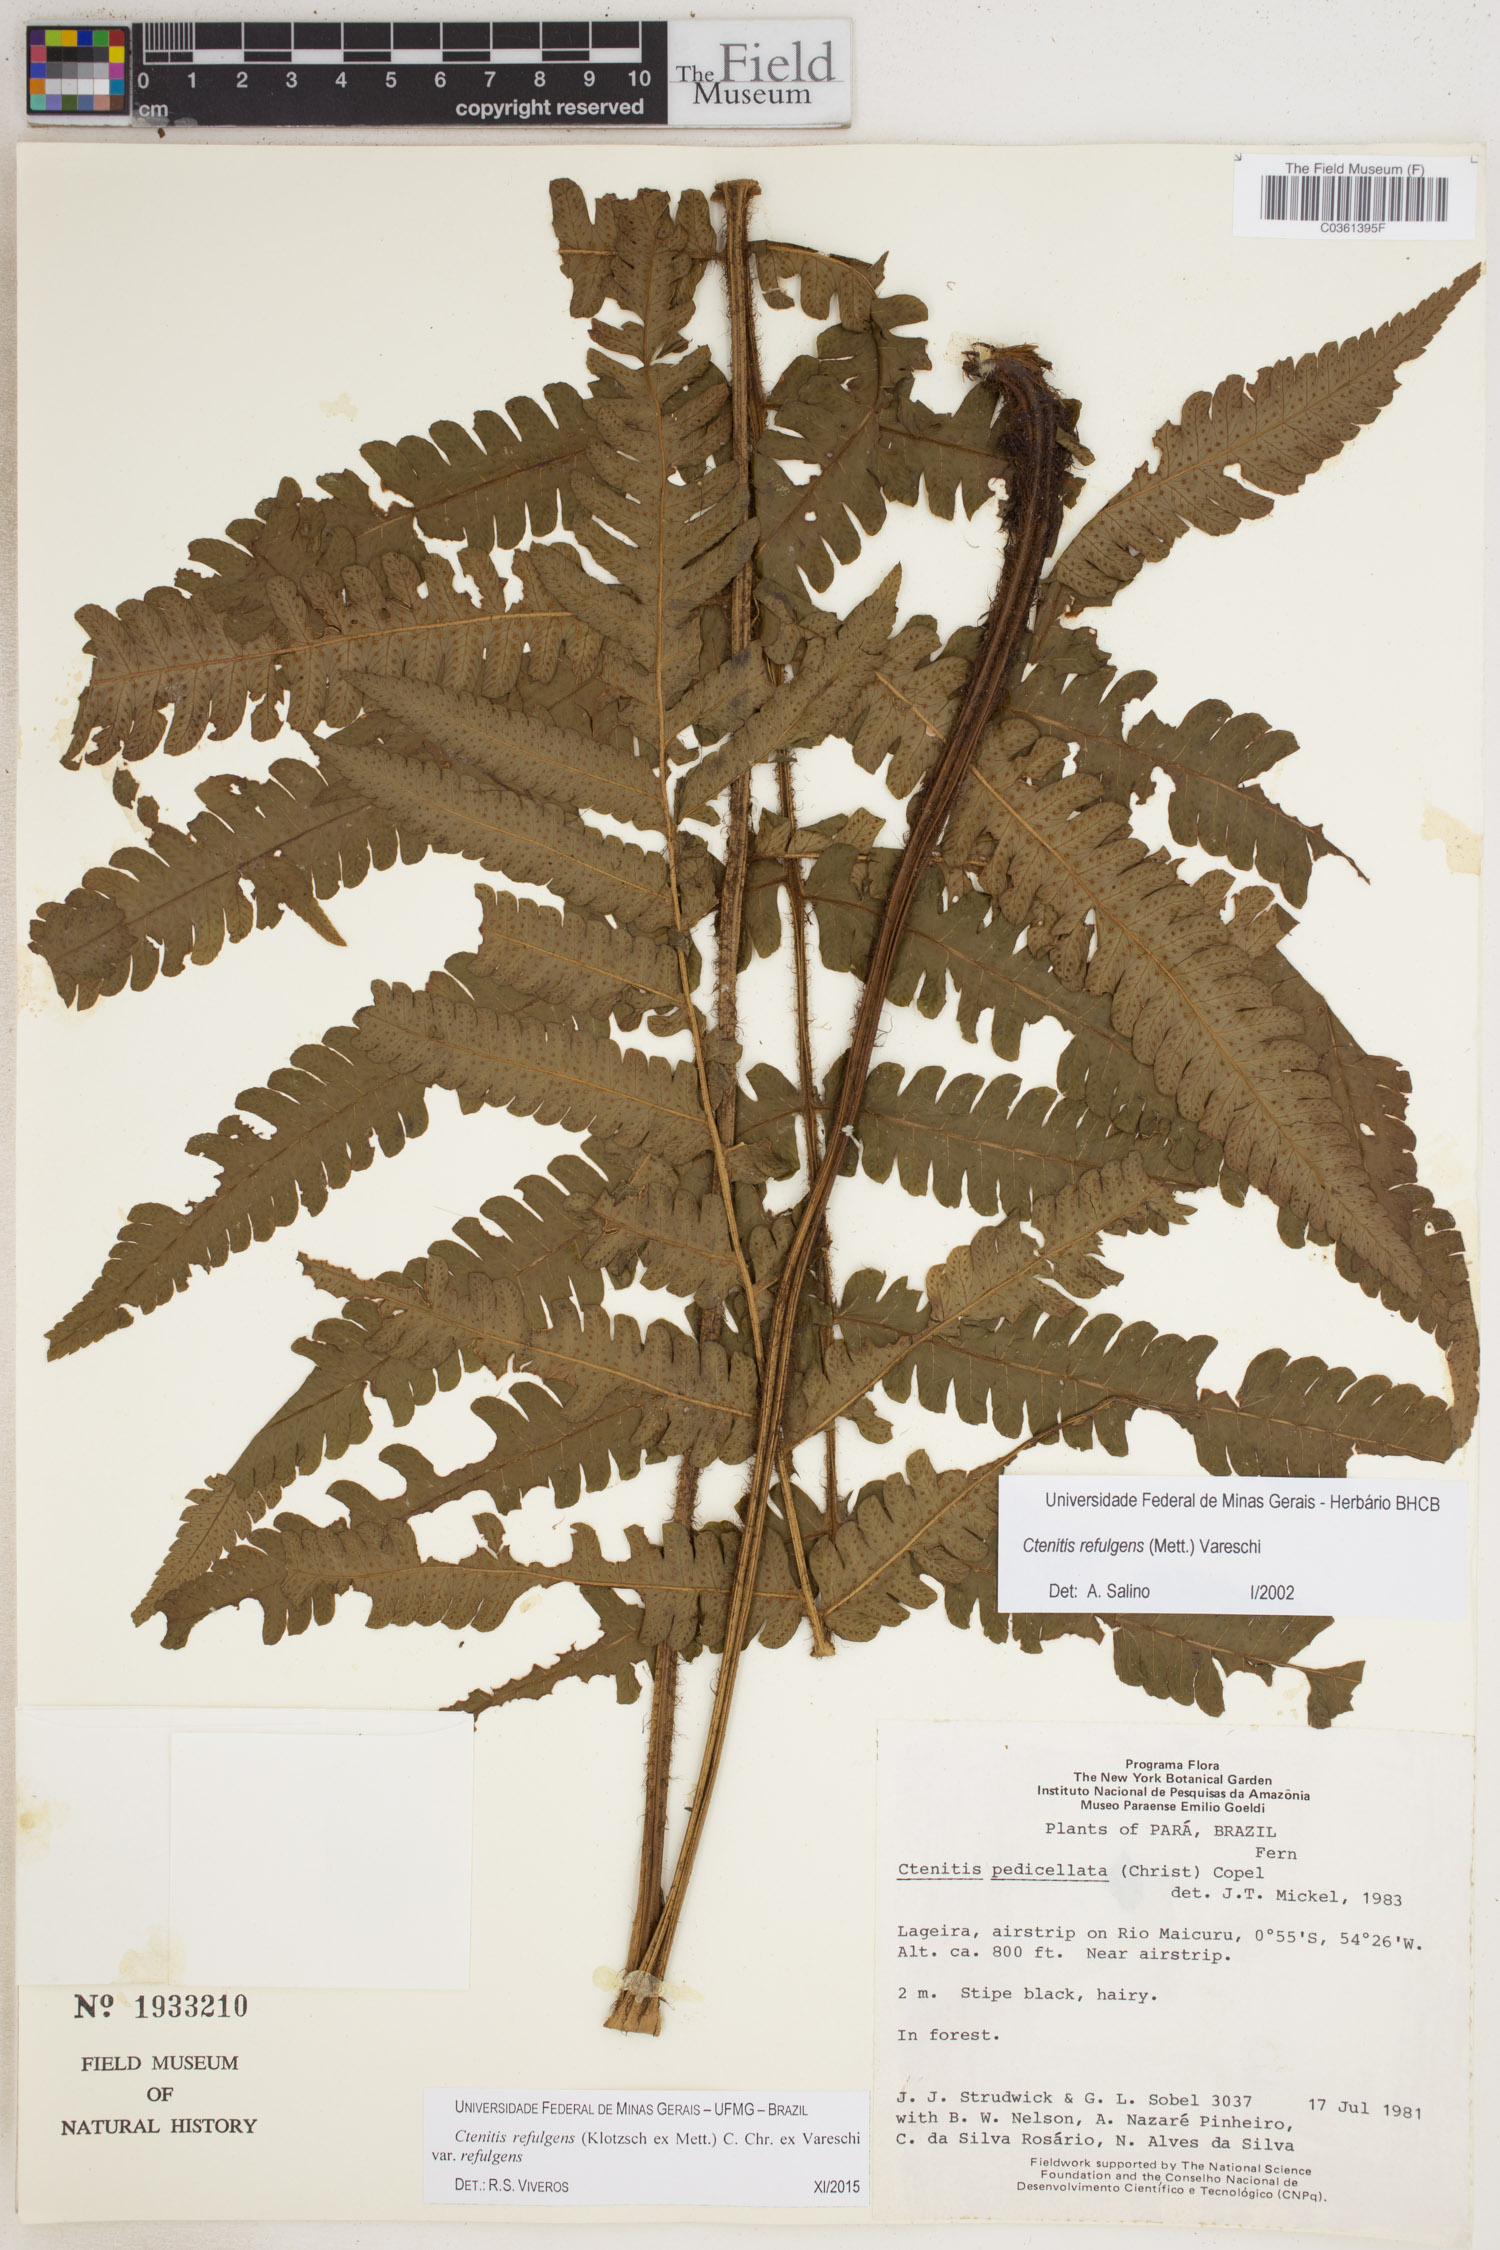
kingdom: Plantae
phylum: Tracheophyta
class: Polypodiopsida
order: Polypodiales
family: Dryopteridaceae
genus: Ctenitis
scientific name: Ctenitis refulgens
